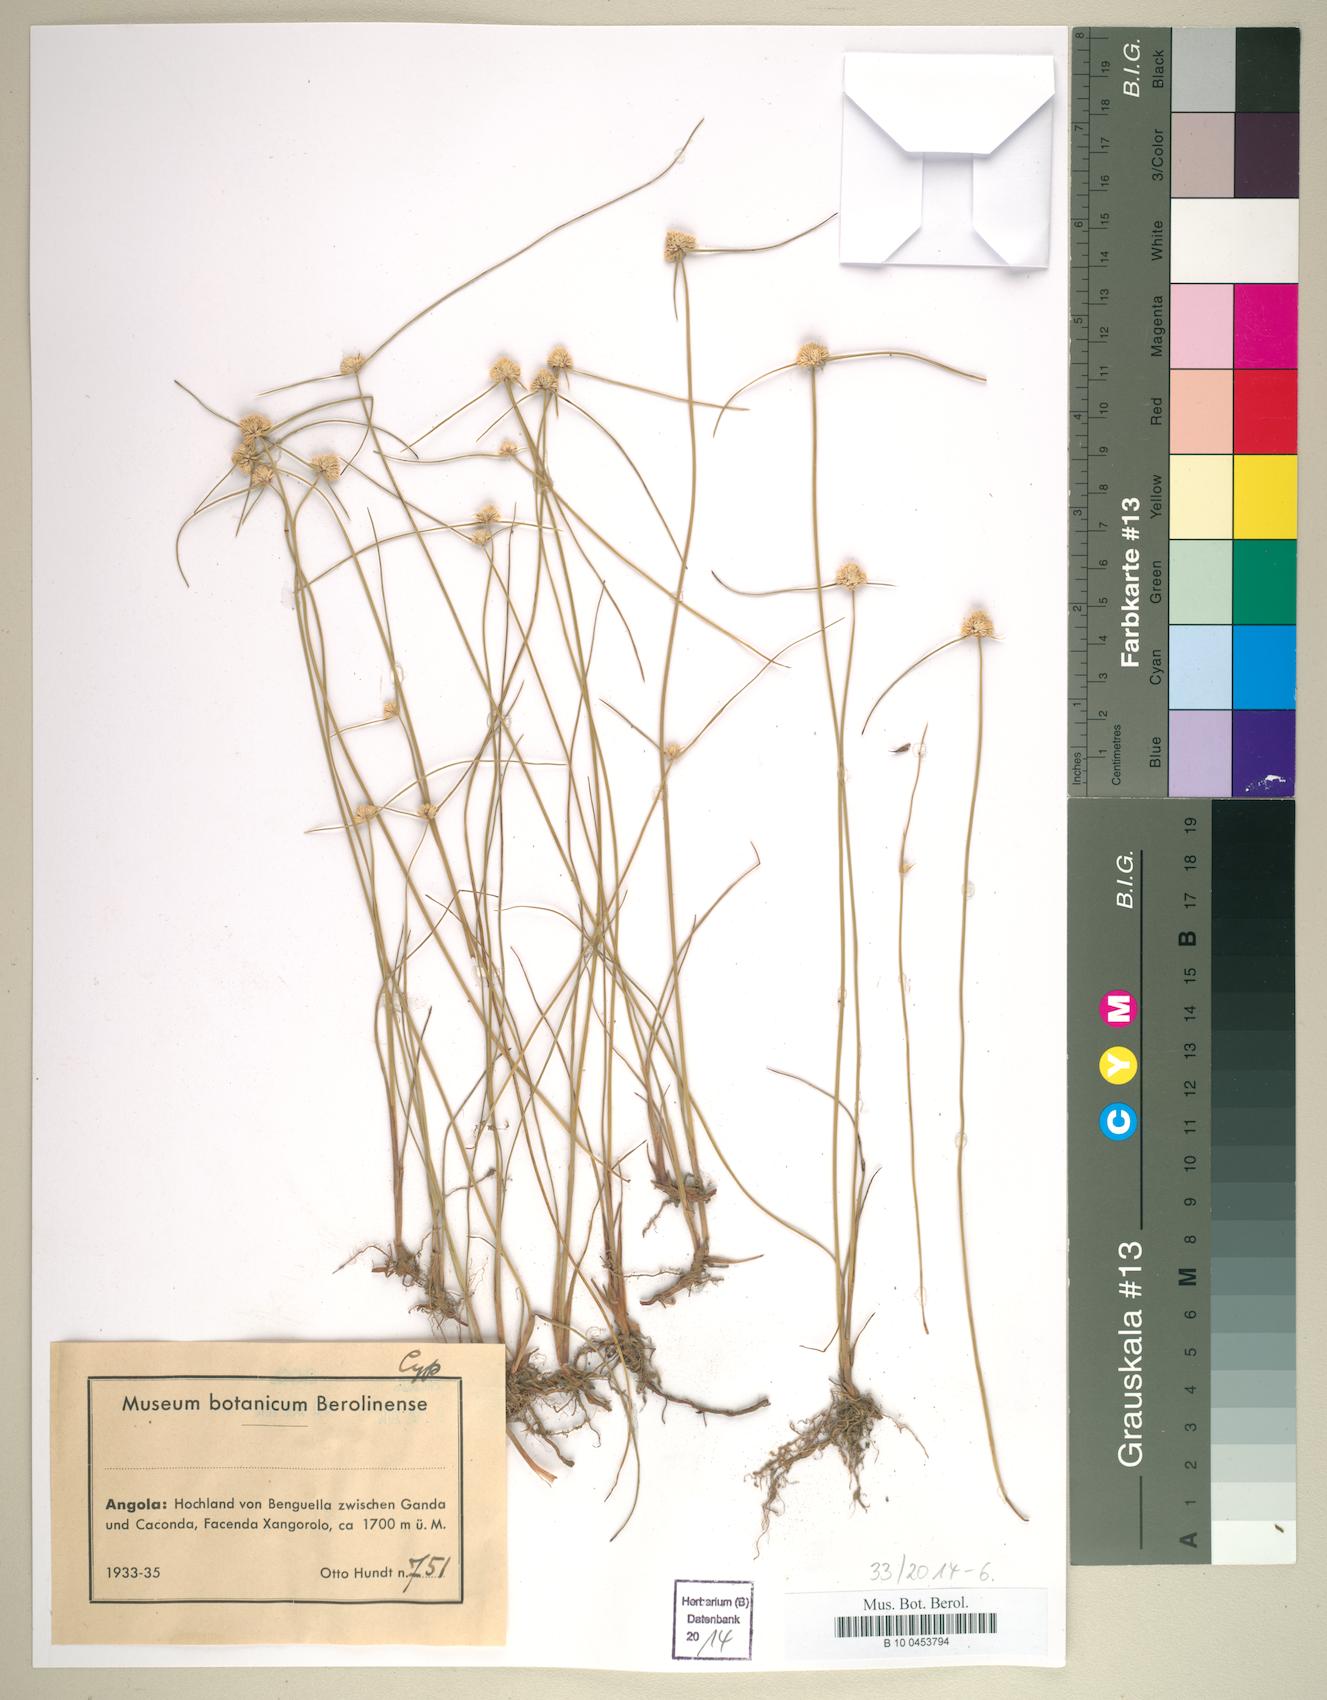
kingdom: Plantae
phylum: Tracheophyta
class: Liliopsida
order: Poales
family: Cyperaceae
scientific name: Cyperaceae
